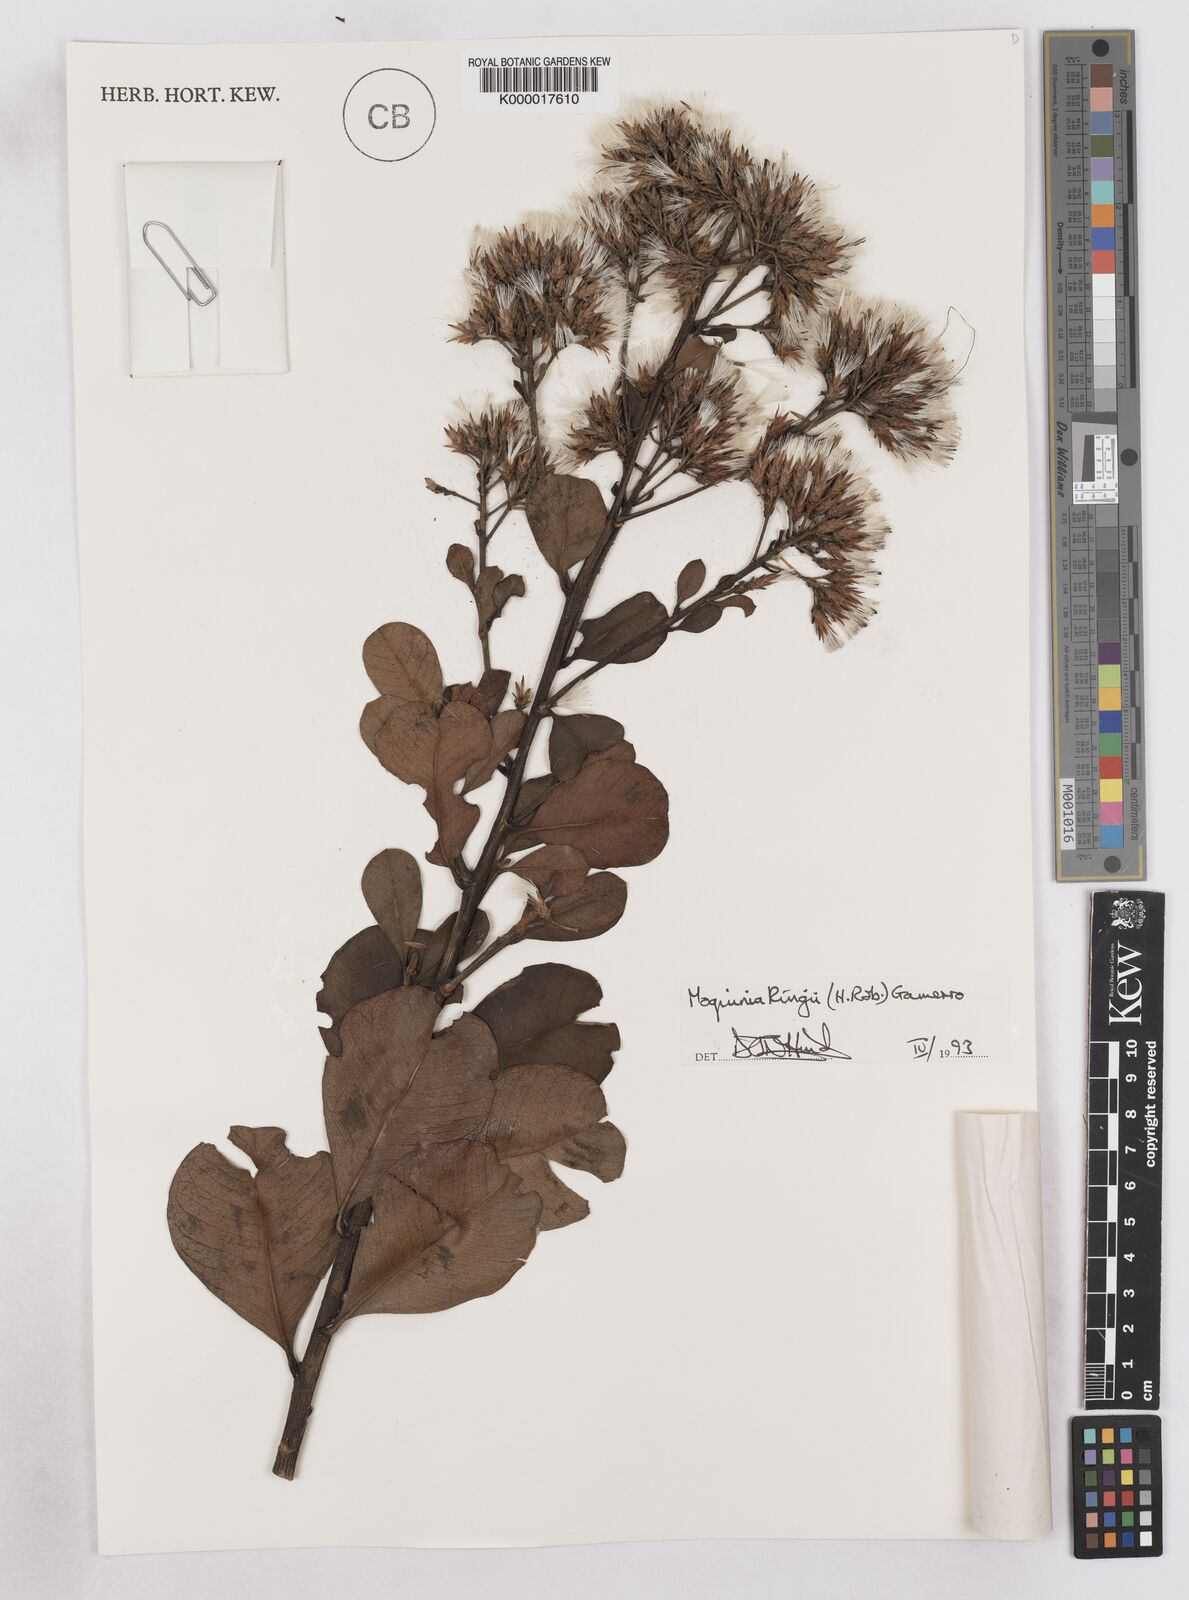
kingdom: Plantae
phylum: Tracheophyta
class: Magnoliopsida
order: Asterales
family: Asteraceae
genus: Pseudostifftia
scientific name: Pseudostifftia kingii
